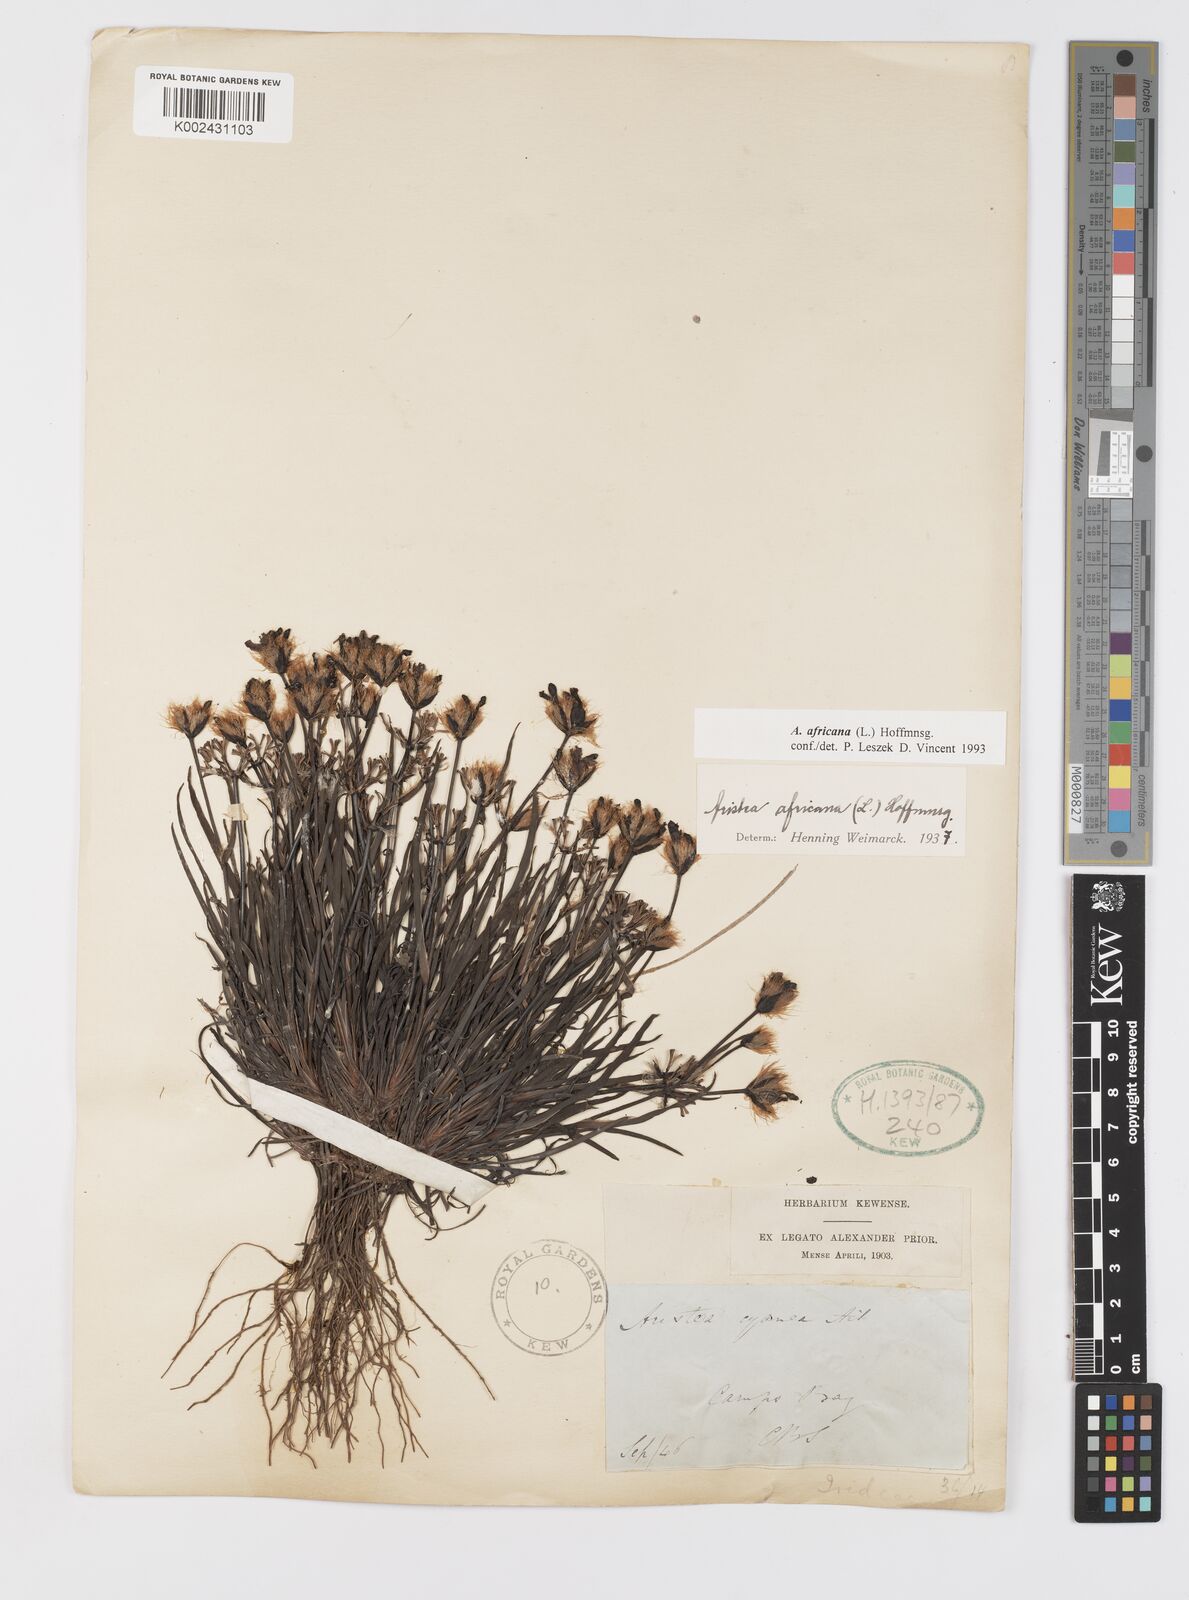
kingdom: Plantae
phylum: Tracheophyta
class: Liliopsida
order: Asparagales
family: Iridaceae
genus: Aristea
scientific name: Aristea africana
